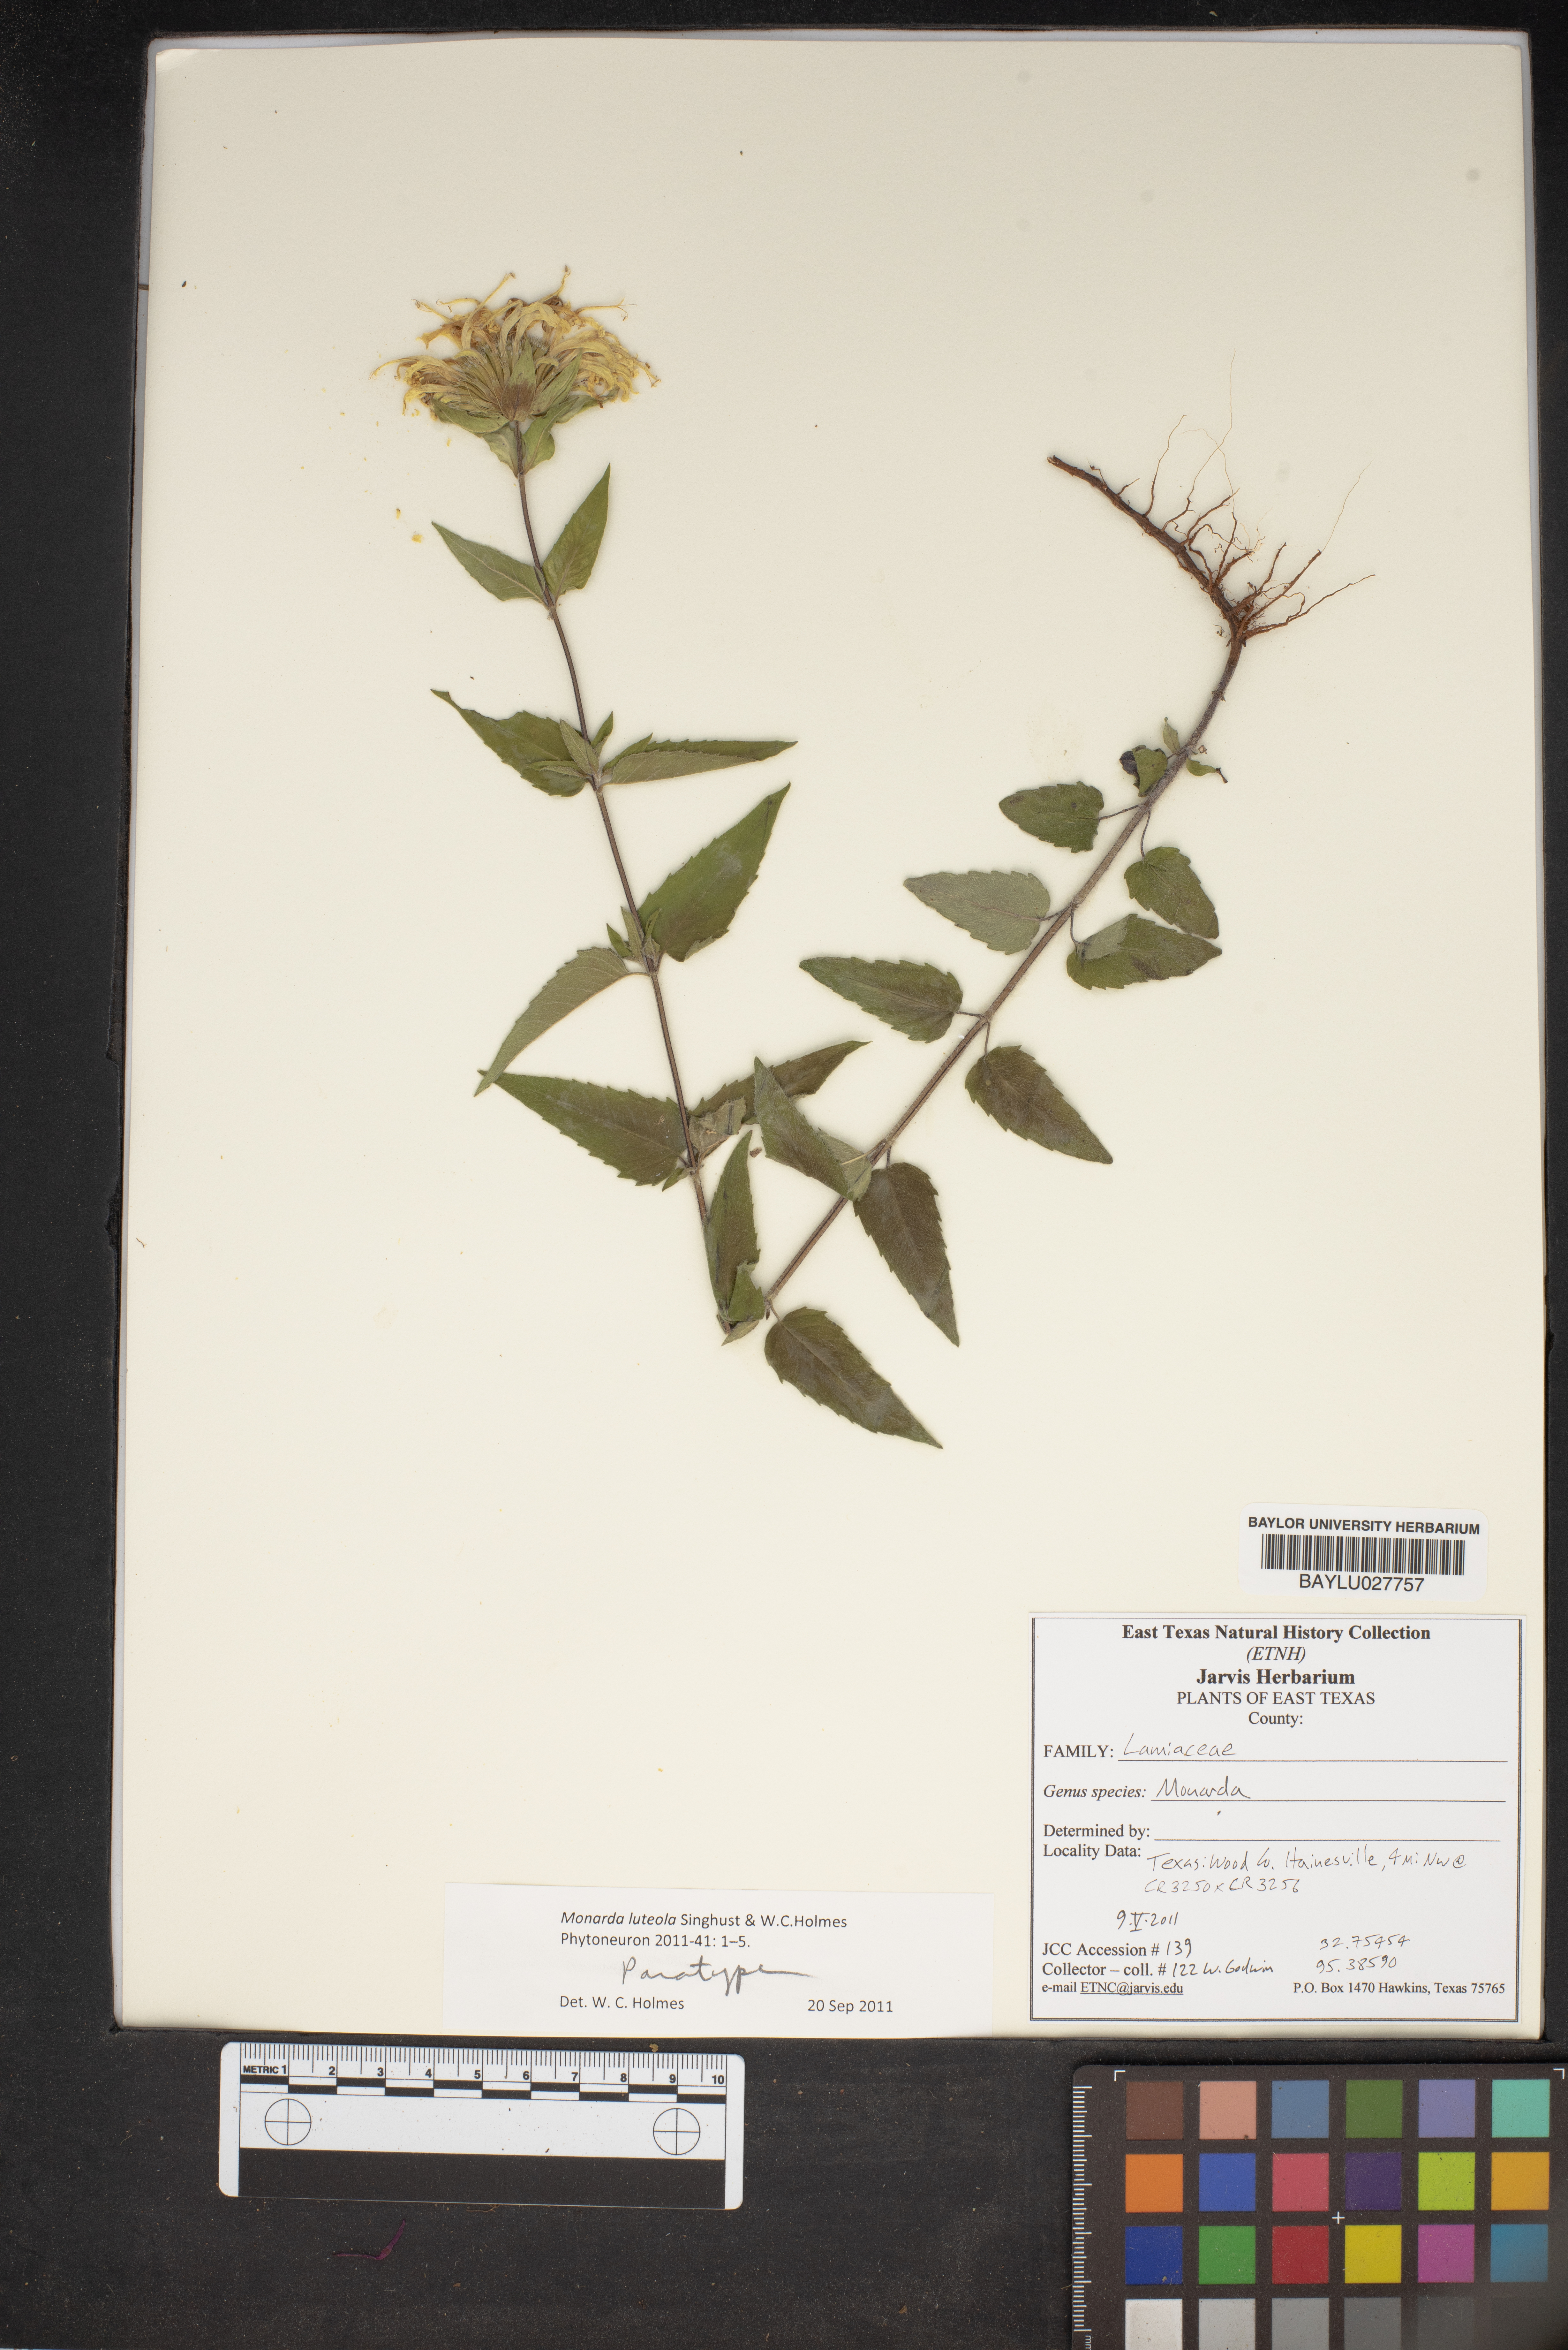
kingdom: Plantae
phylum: Tracheophyta
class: Magnoliopsida
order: Lamiales
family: Lamiaceae
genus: Monarda
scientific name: Monarda
